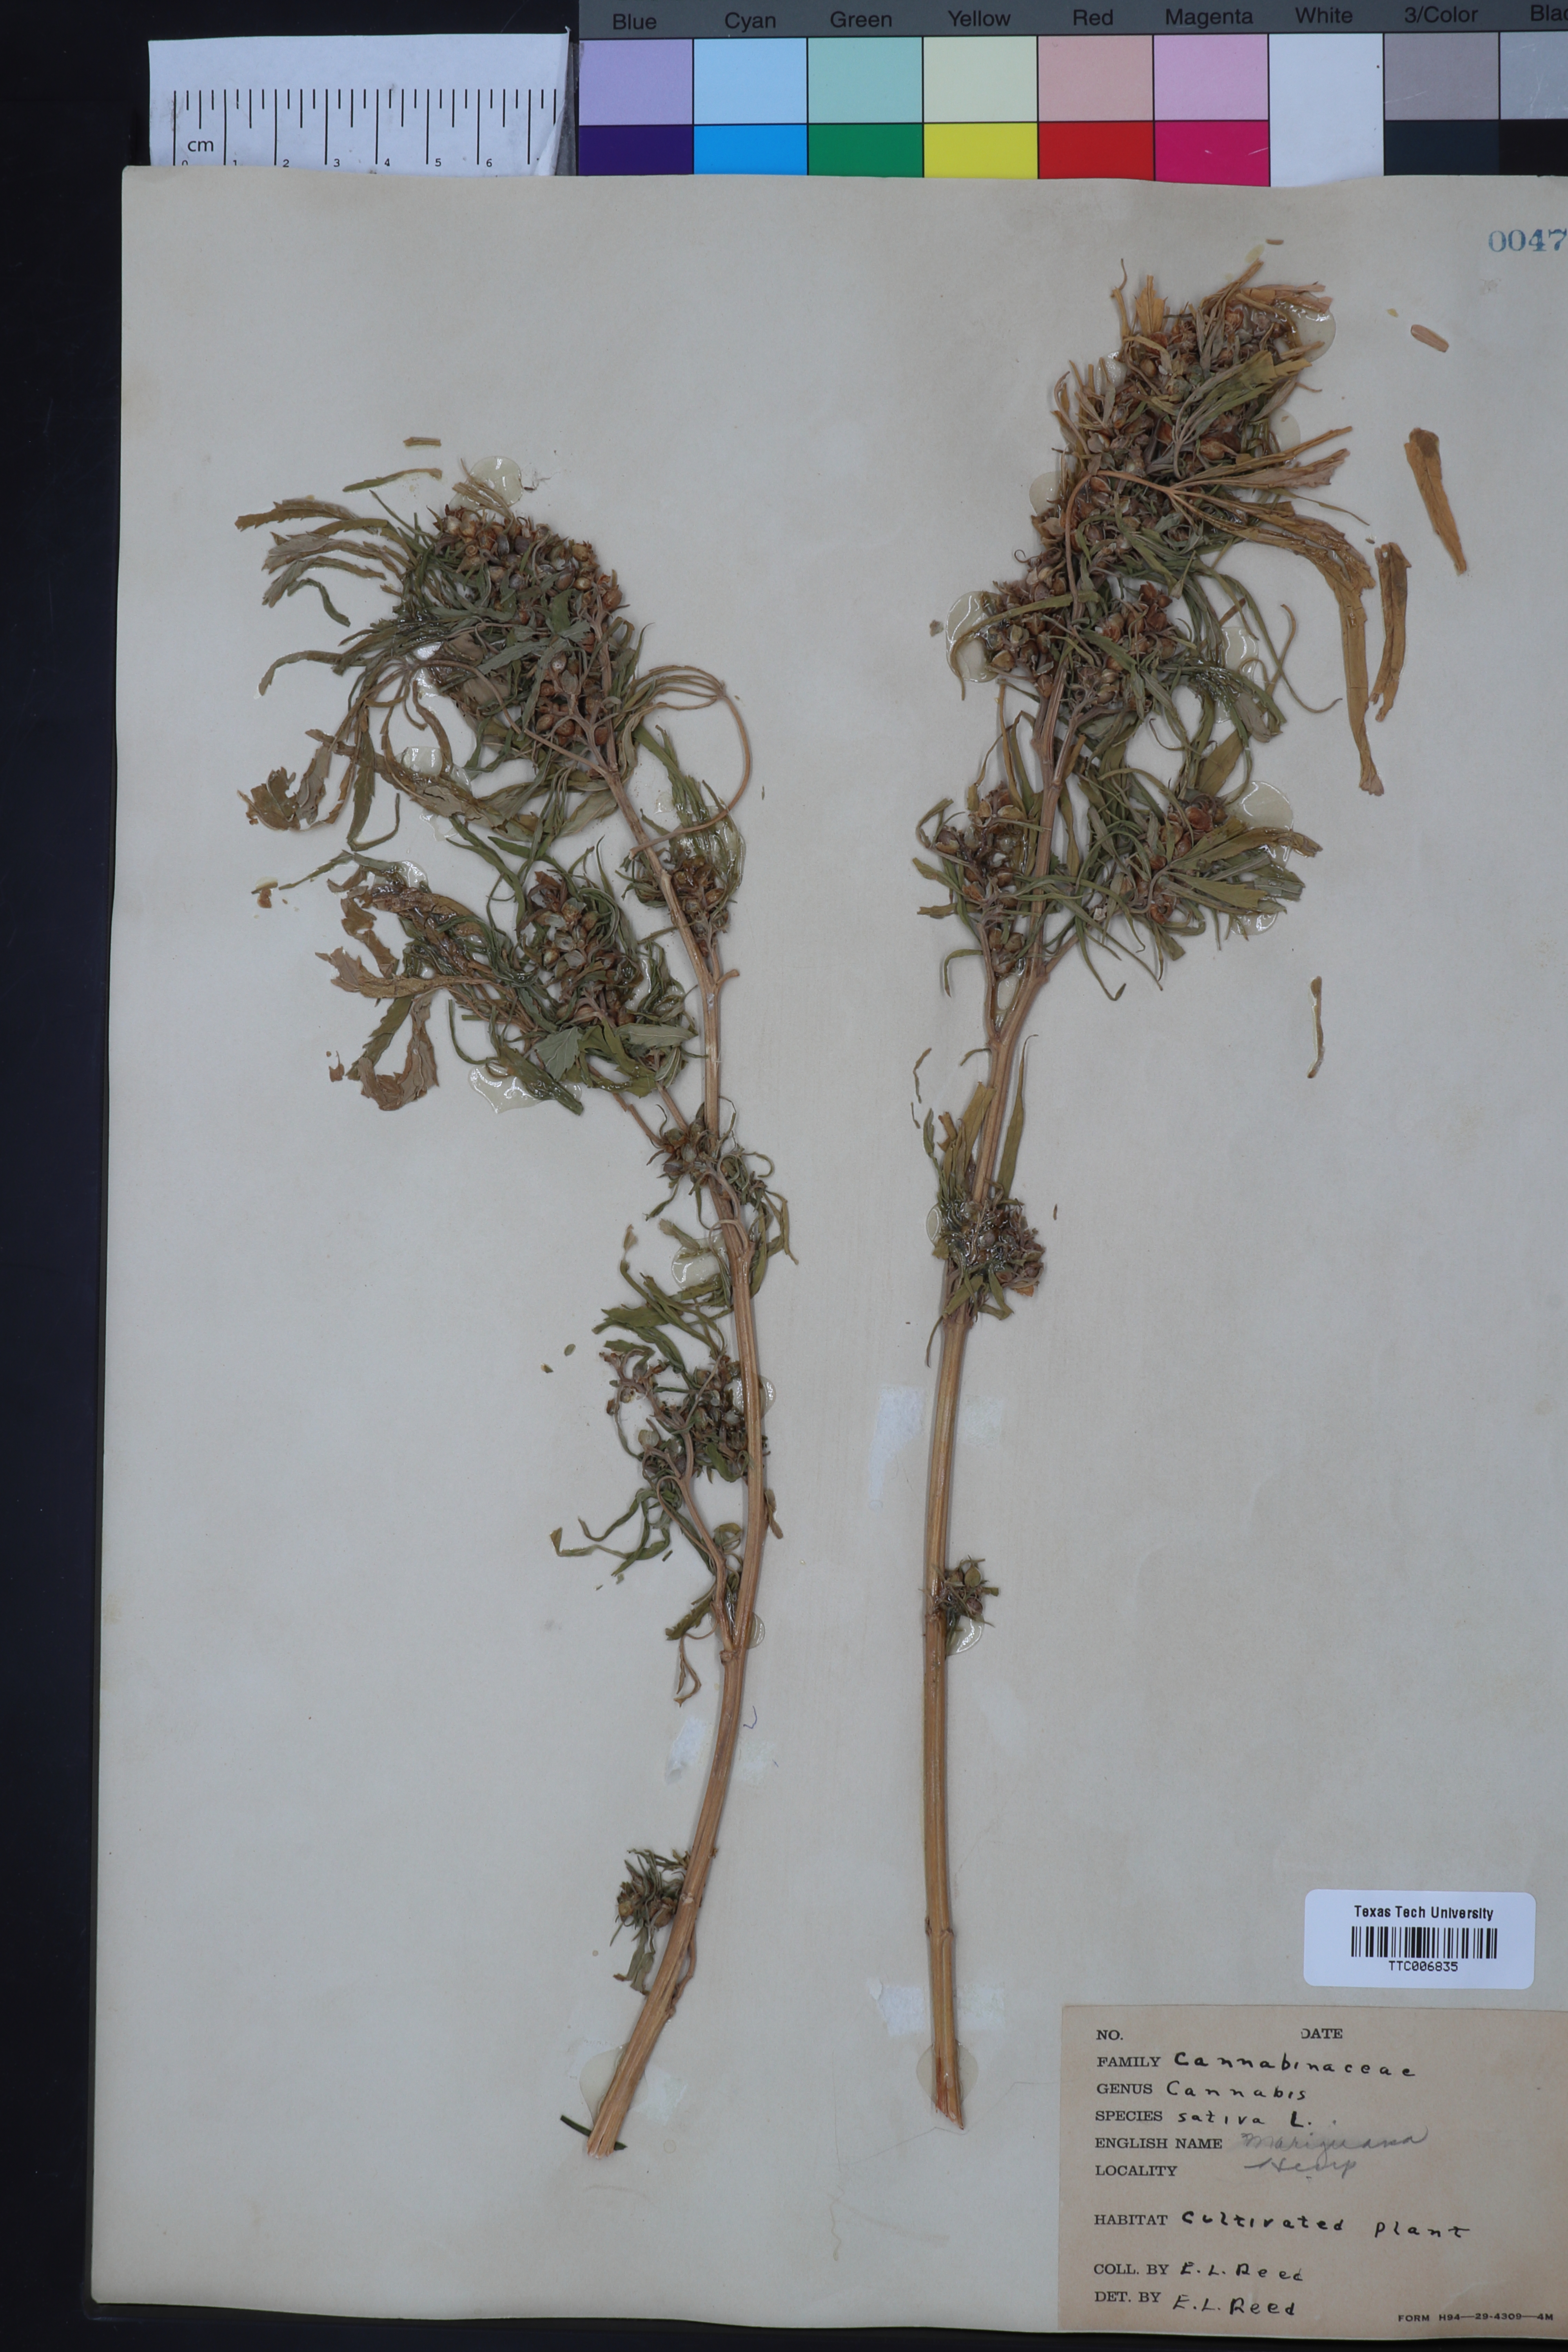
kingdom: Plantae
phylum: Tracheophyta
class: Magnoliopsida
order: Rosales
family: Cannabaceae
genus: Cannabis
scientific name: Cannabis sativa
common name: Hemp
